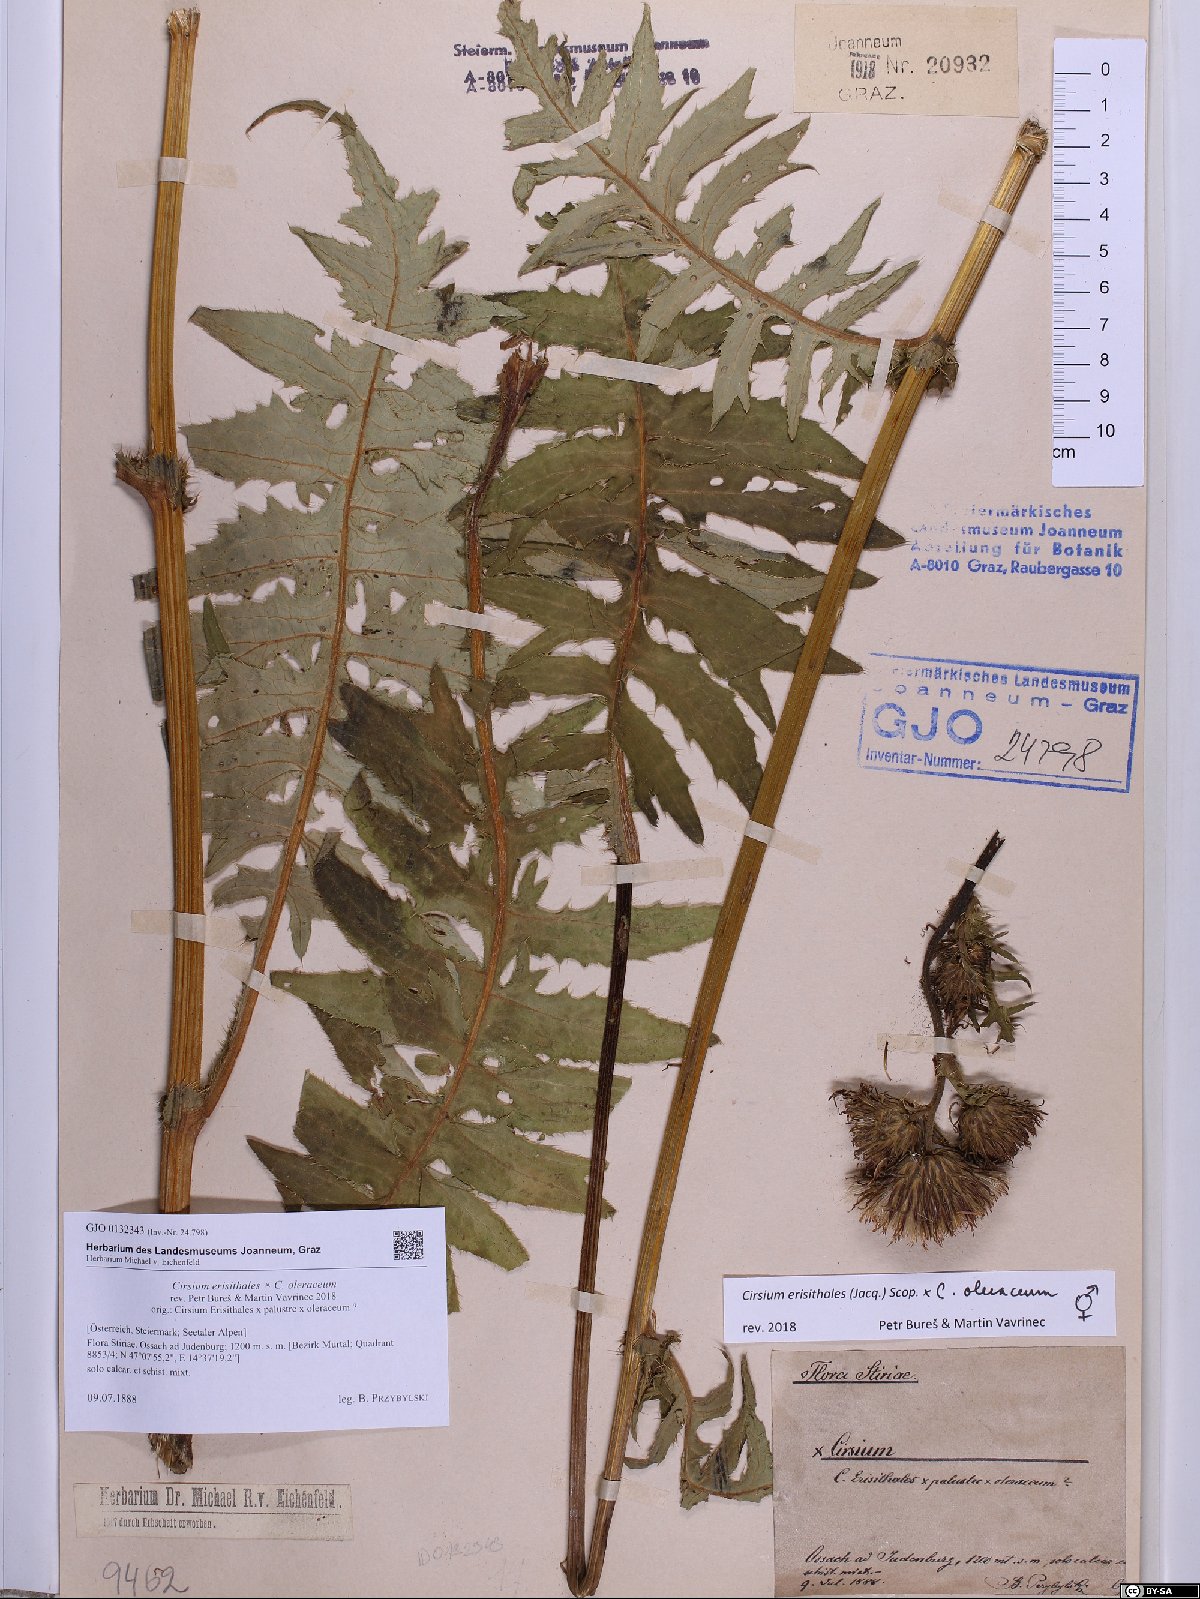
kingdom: Plantae
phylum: Tracheophyta
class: Magnoliopsida
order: Asterales
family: Asteraceae
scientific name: Asteraceae
